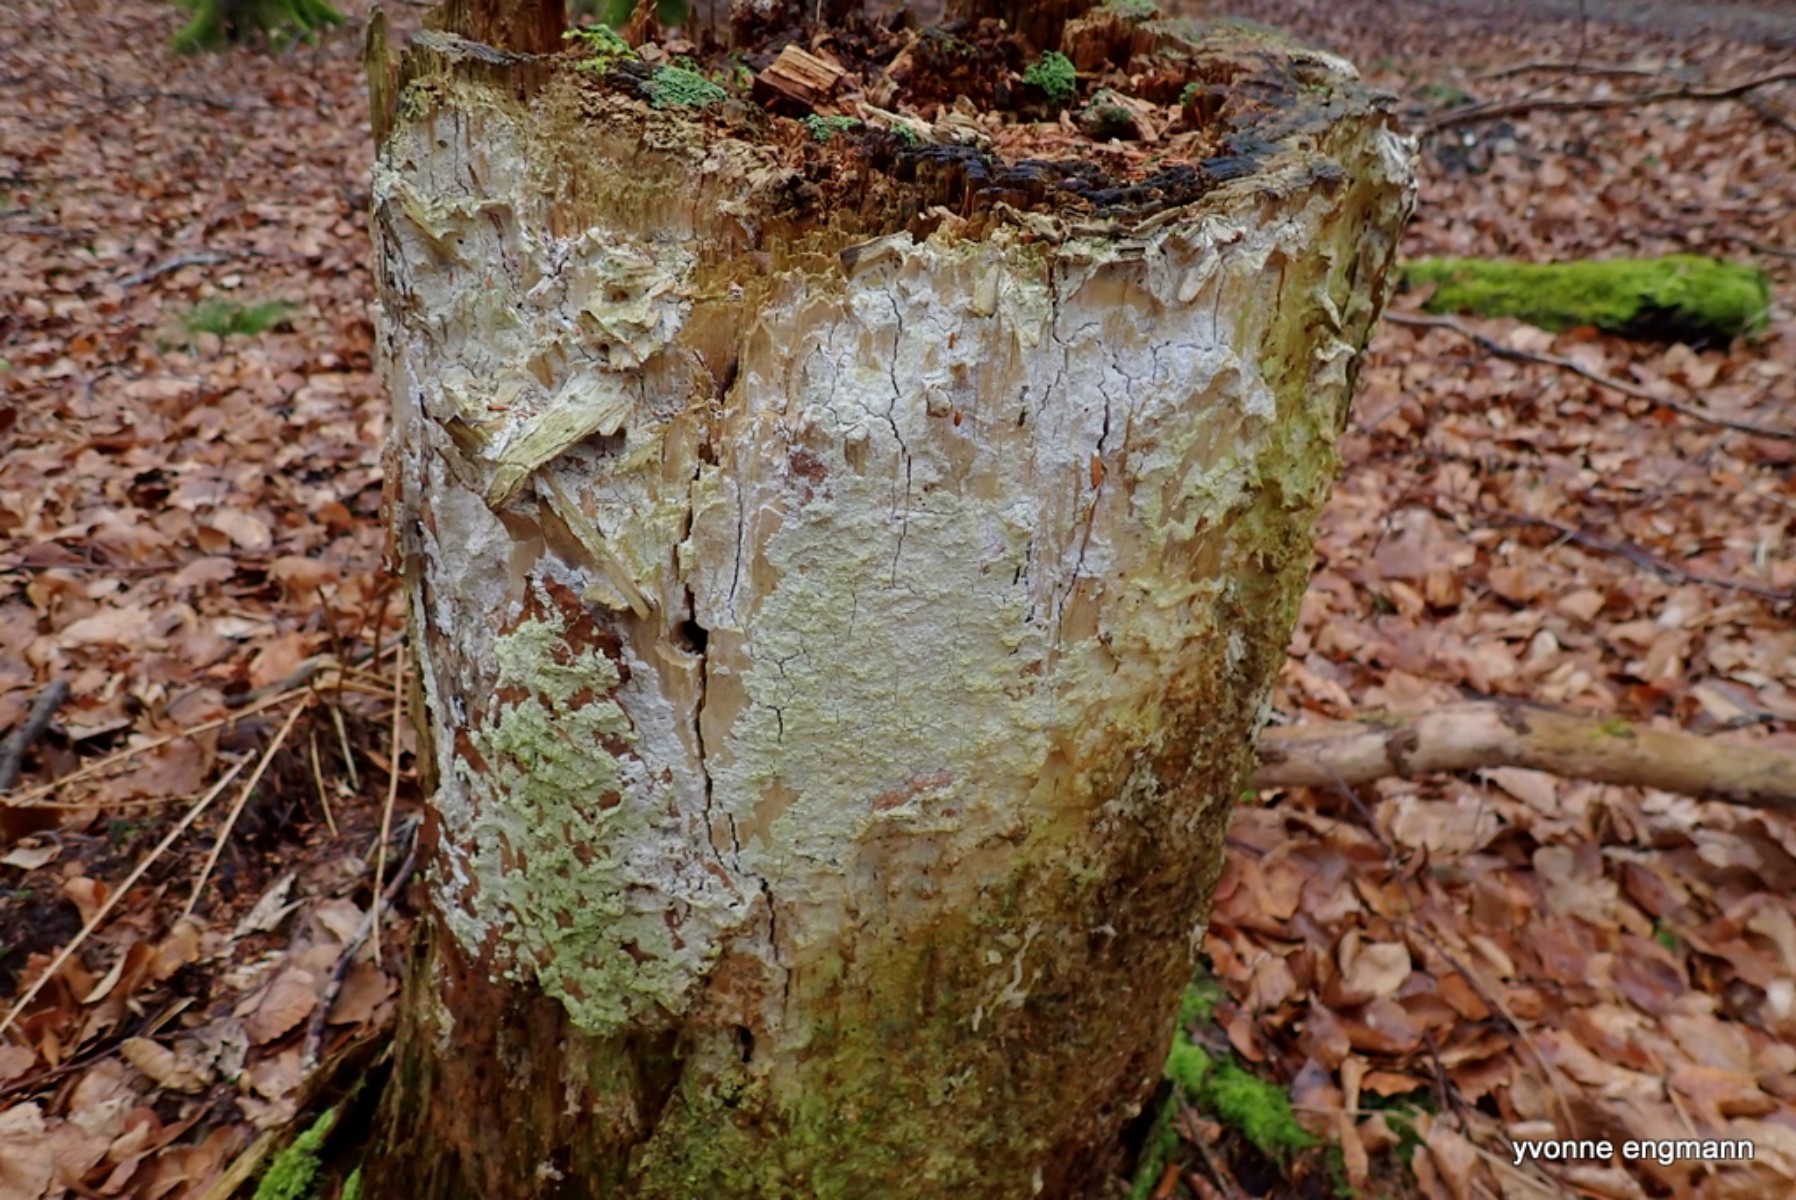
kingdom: Fungi
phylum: Basidiomycota
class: Agaricomycetes
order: Polyporales
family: Fomitopsidaceae
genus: Daedalea
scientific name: Daedalea xantha
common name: gul sejporesvamp
